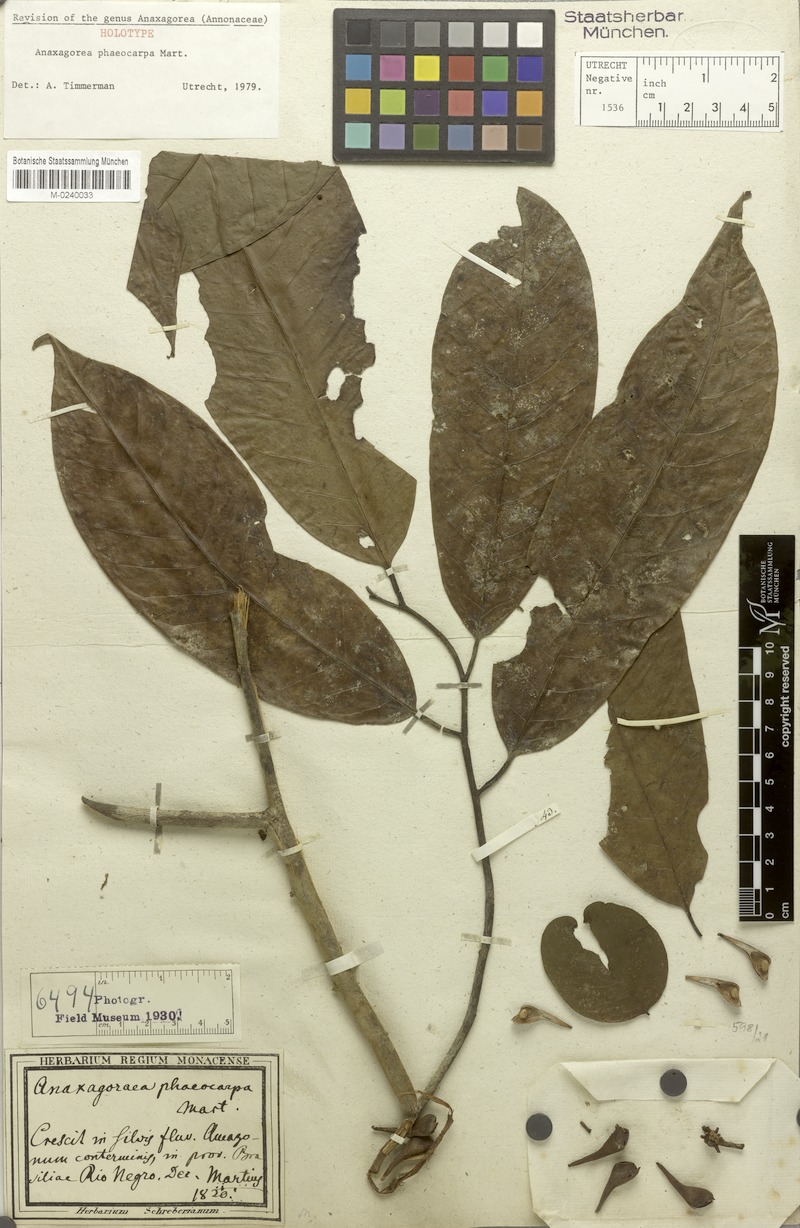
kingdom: Plantae
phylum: Tracheophyta
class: Magnoliopsida
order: Magnoliales
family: Annonaceae
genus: Anaxagorea
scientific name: Anaxagorea phaeocarpa
